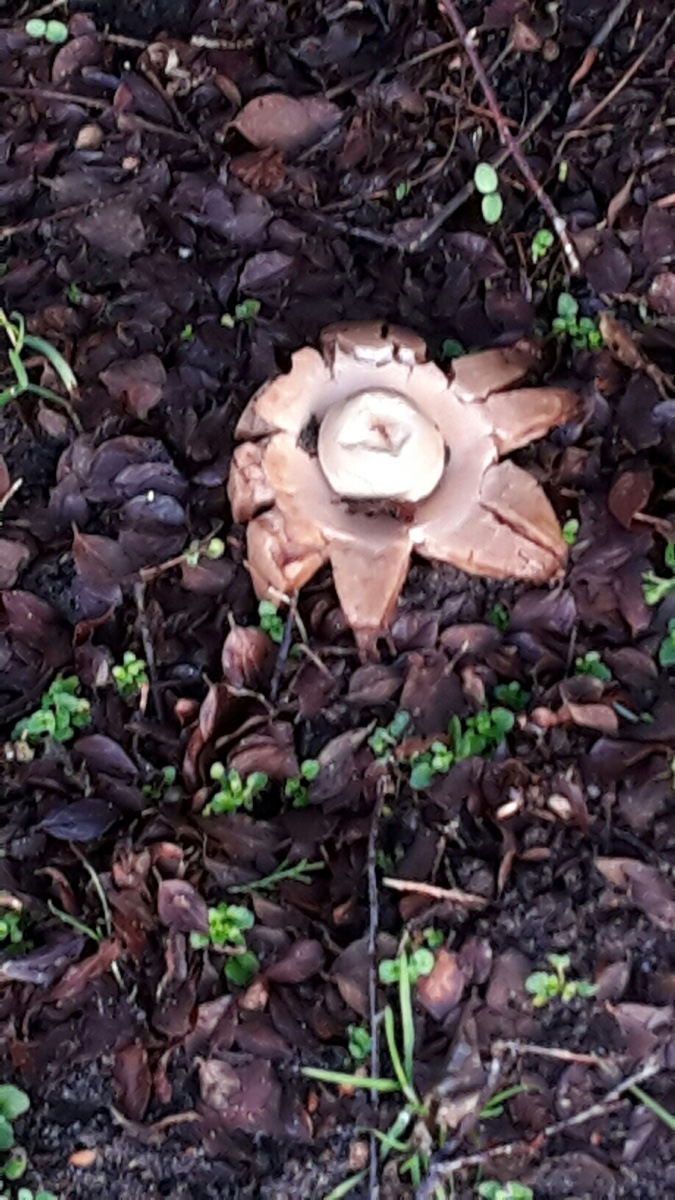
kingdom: Fungi
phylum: Basidiomycota
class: Agaricomycetes
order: Geastrales
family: Geastraceae
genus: Geastrum
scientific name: Geastrum michelianum
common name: kødet stjernebold
